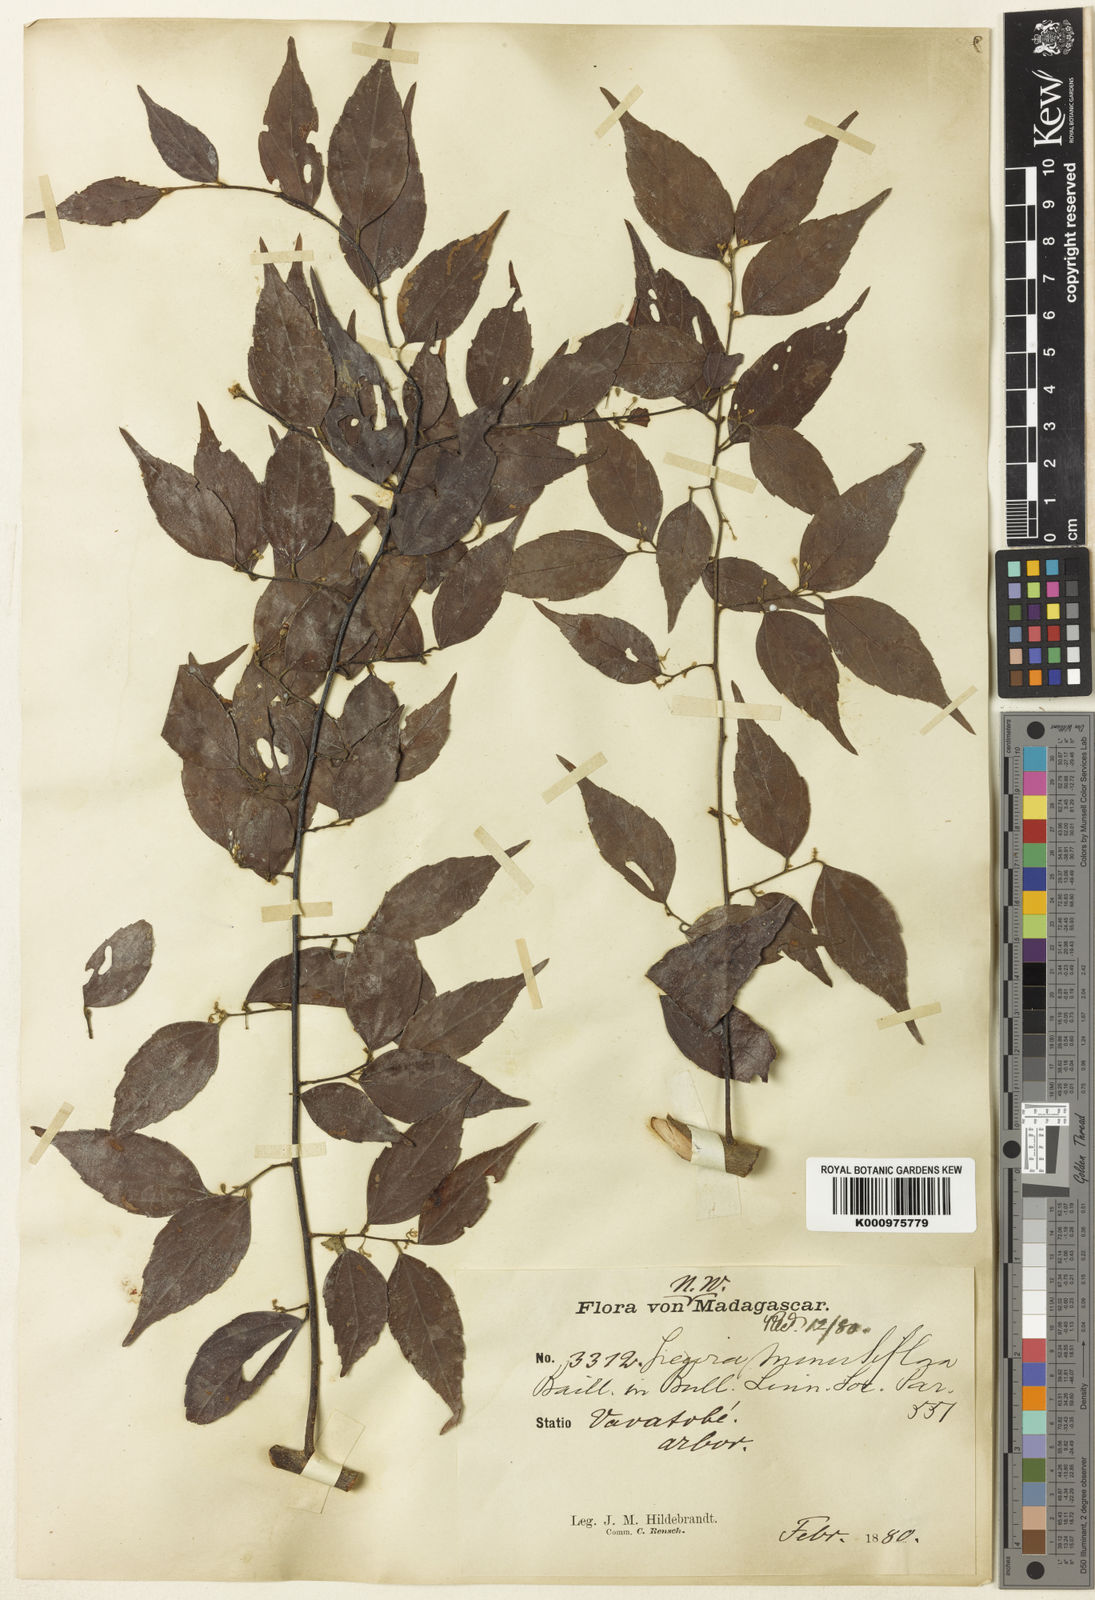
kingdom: Plantae
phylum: Tracheophyta
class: Magnoliopsida
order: Malvales
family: Malvaceae
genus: Grewia
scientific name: Grewia brideliifolia
